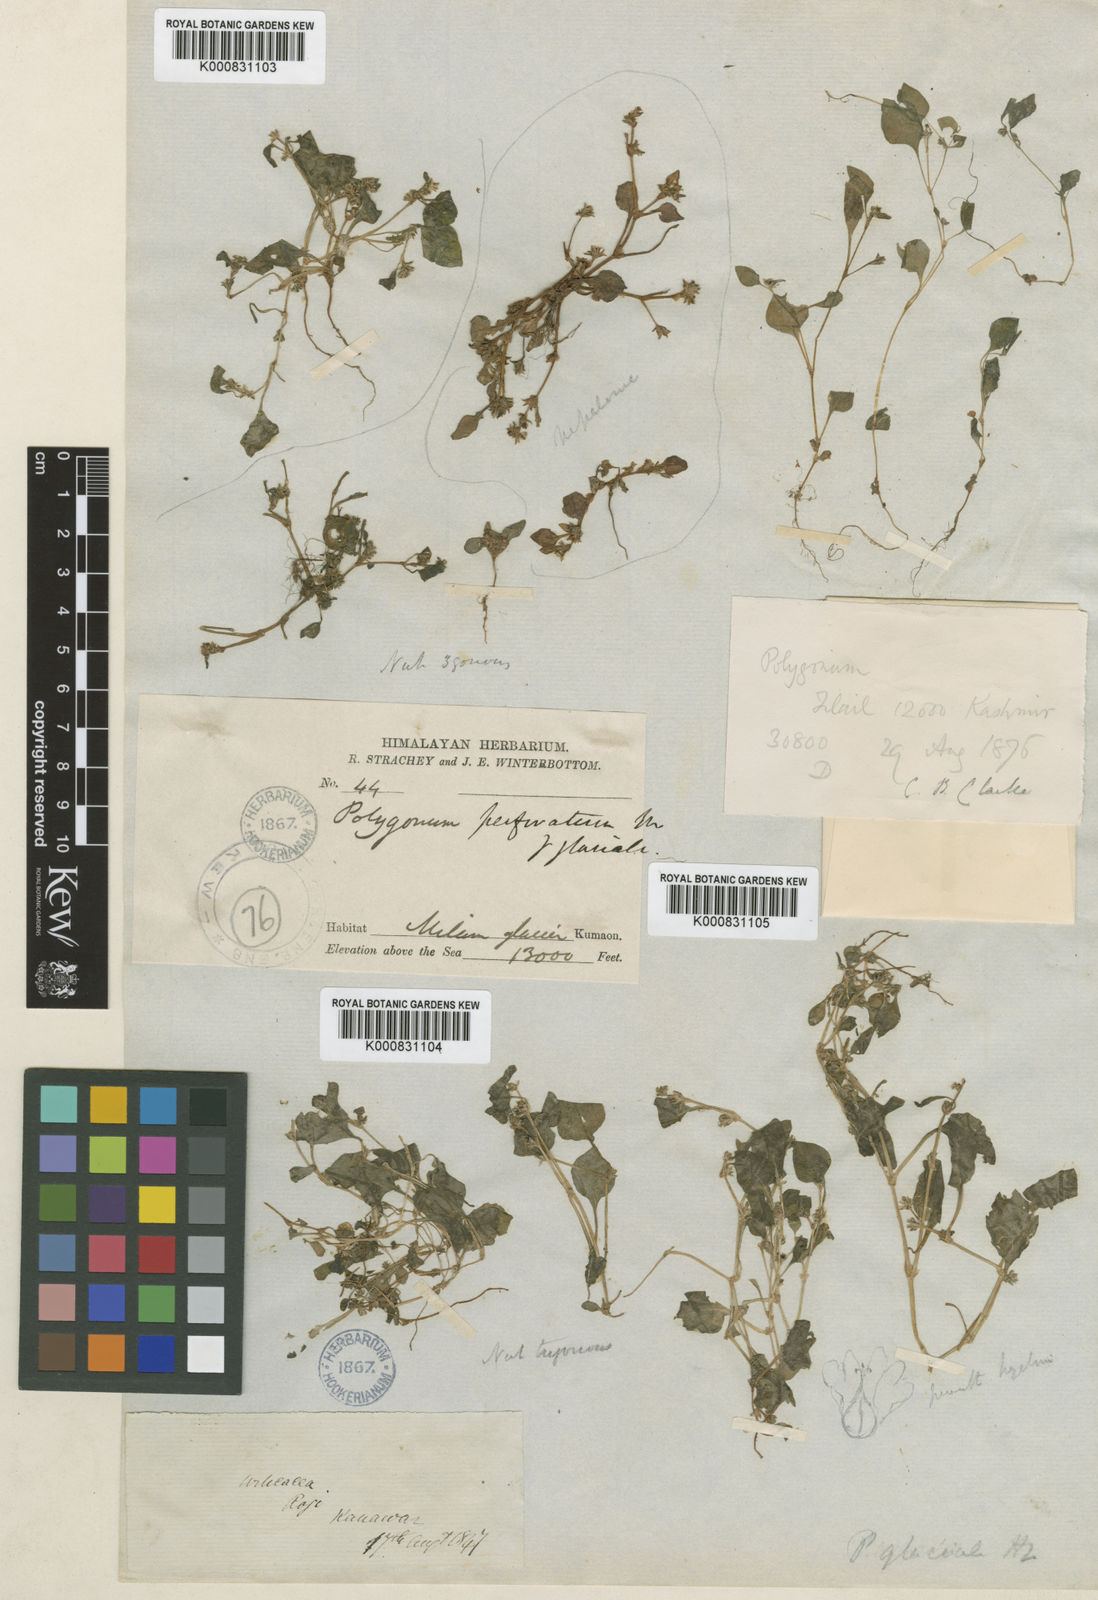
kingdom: Plantae
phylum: Tracheophyta
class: Magnoliopsida
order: Caryophyllales
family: Polygonaceae
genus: Persicaria
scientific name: Persicaria glacialis
